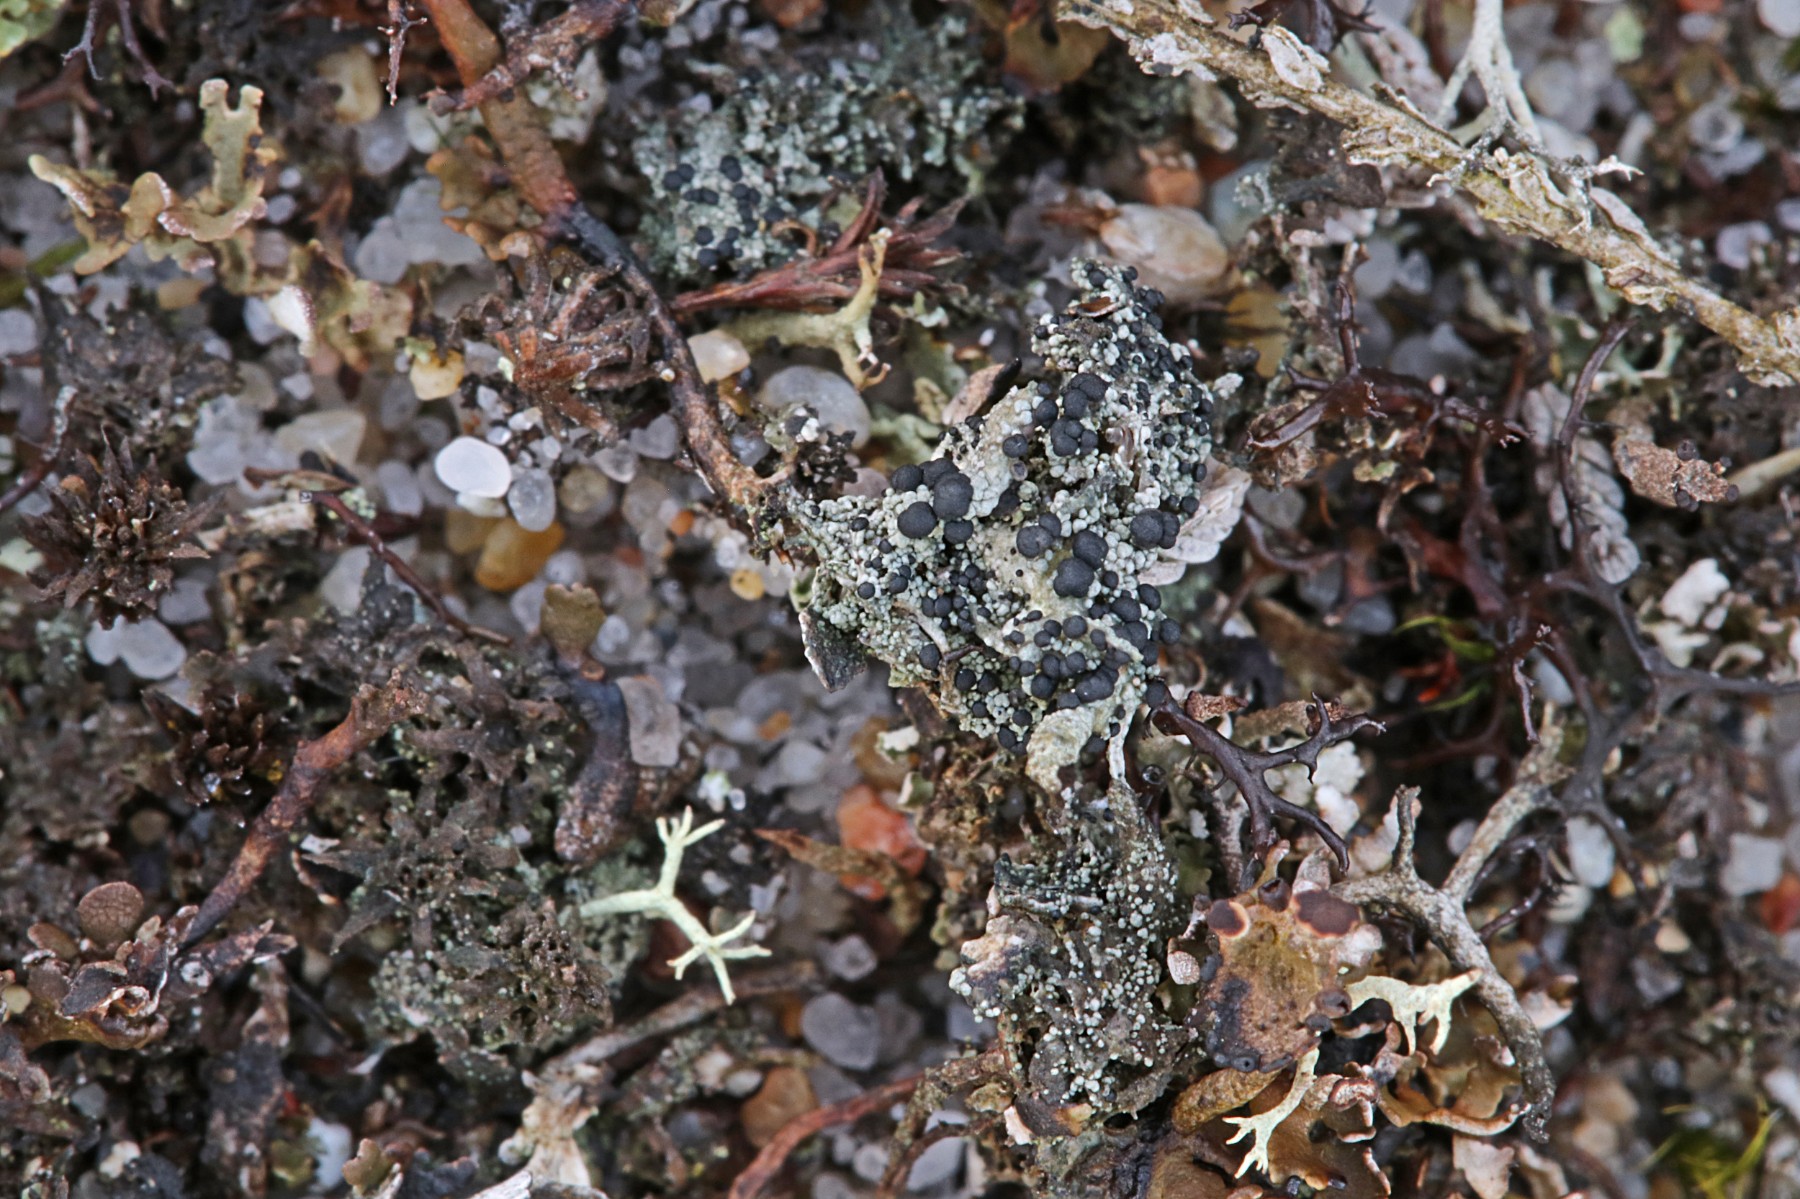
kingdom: Fungi
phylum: Ascomycota
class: Lecanoromycetes
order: Lecanorales
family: Byssolomataceae
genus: Micarea
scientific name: Micarea lignaria
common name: tørve-knaplav
